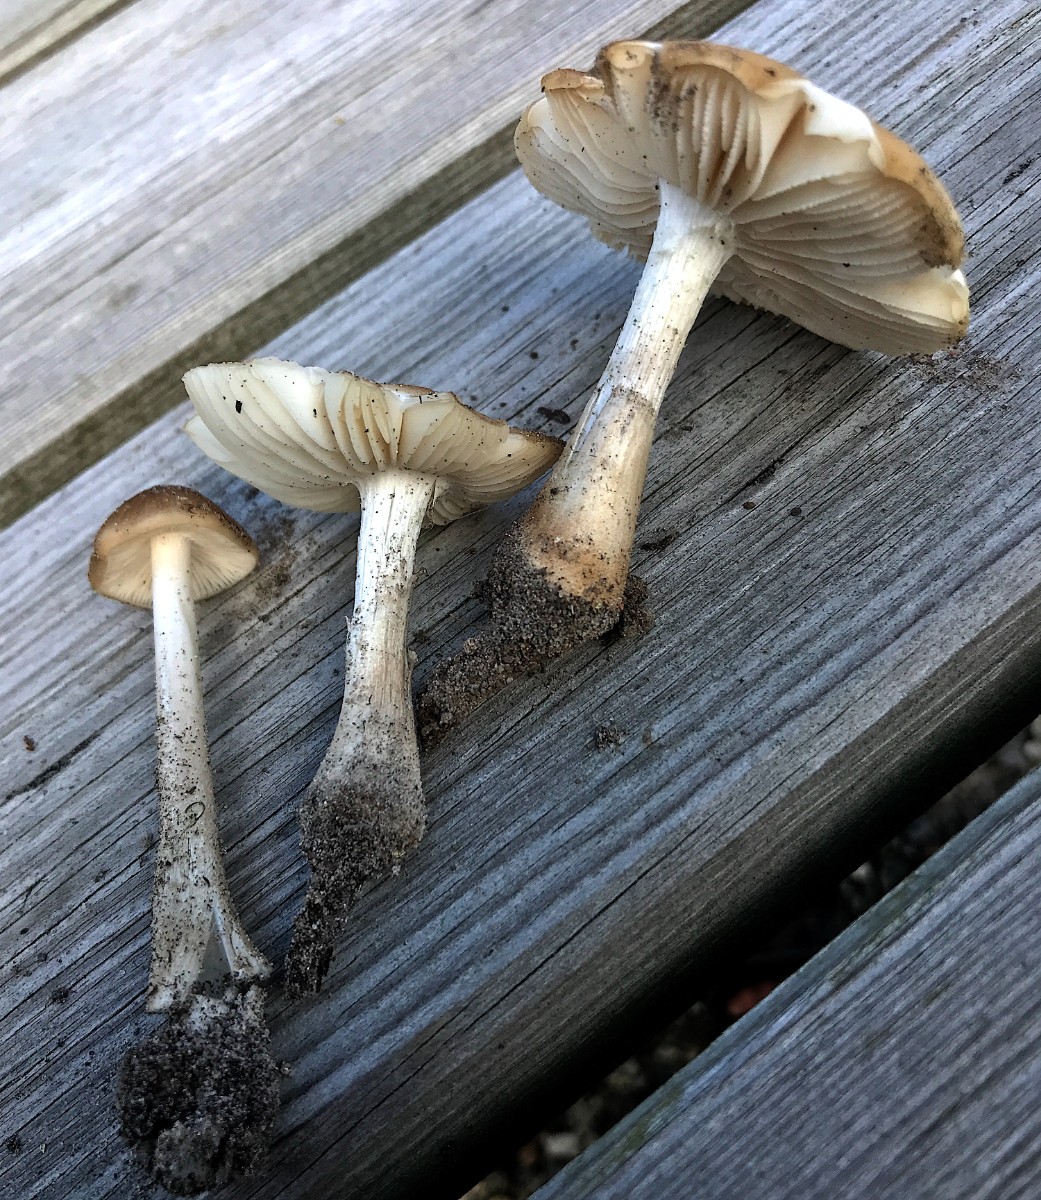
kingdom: Fungi
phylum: Basidiomycota
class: Agaricomycetes
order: Agaricales
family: Physalacriaceae
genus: Hymenopellis
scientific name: Hymenopellis radicata
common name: almindelig pælerodshat
